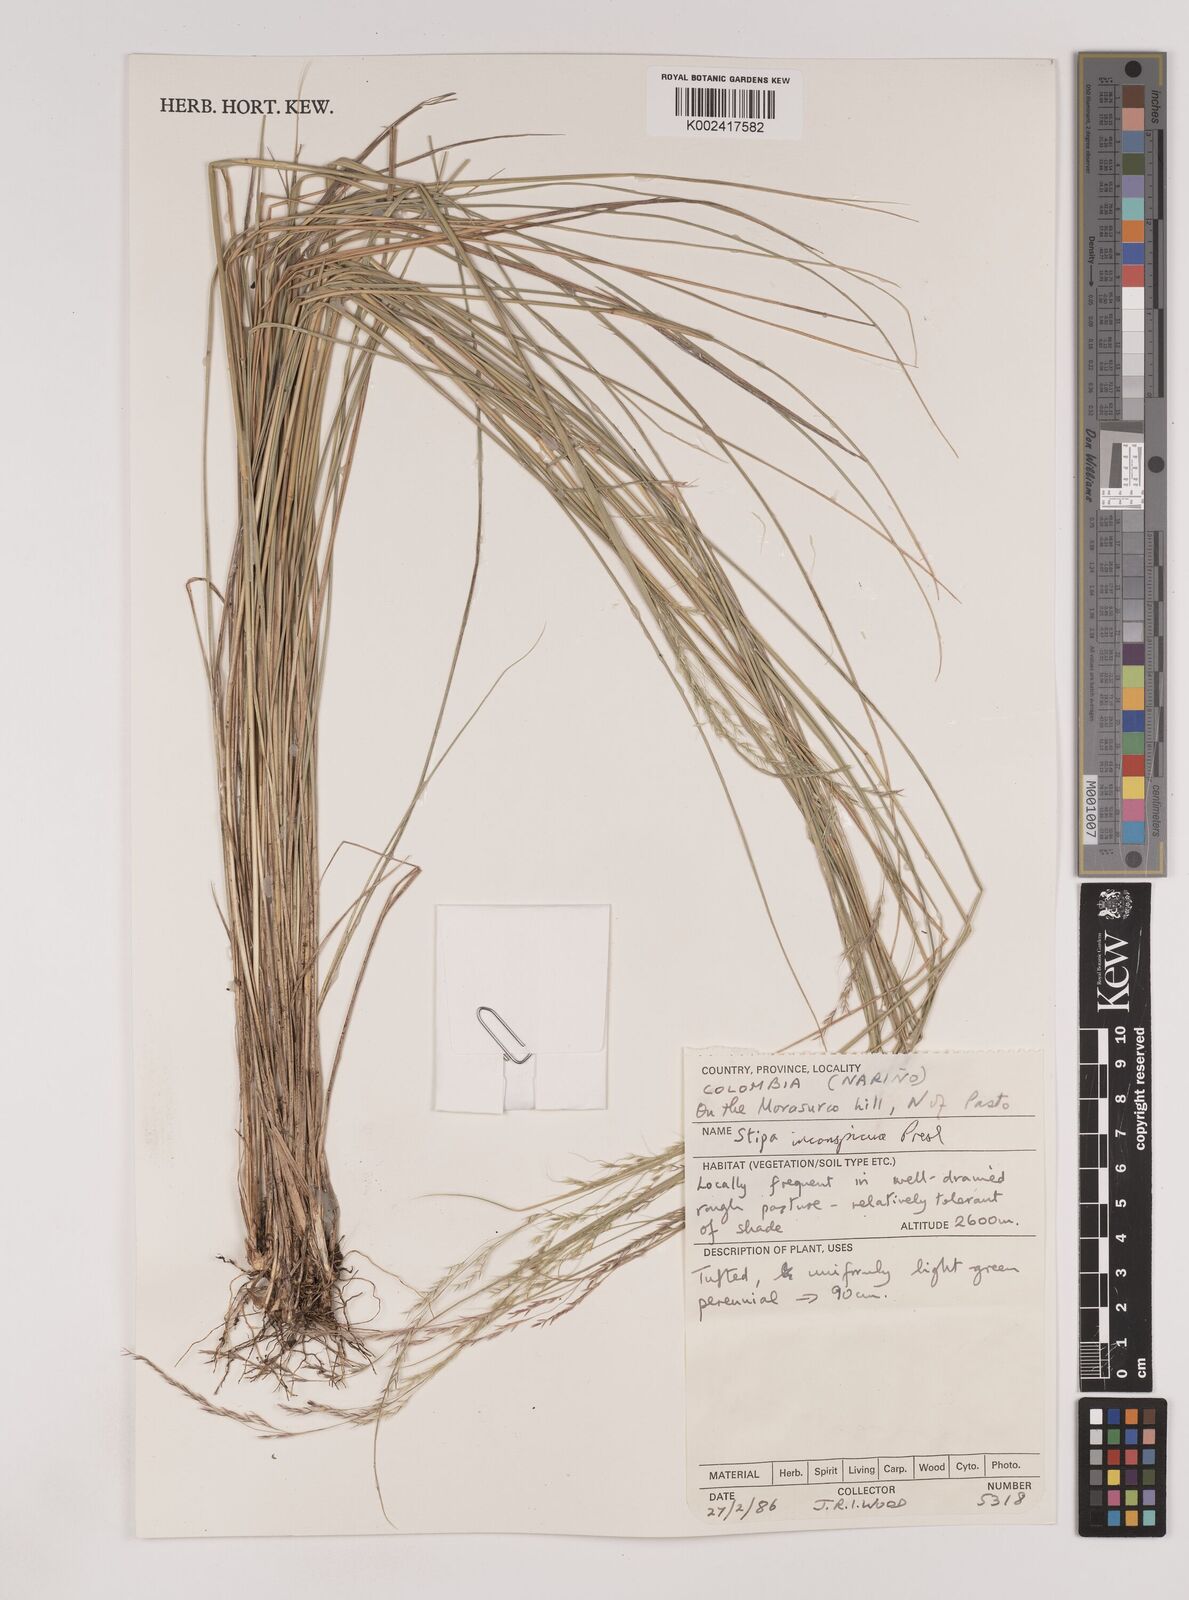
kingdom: Plantae
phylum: Tracheophyta
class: Liliopsida
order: Poales
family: Poaceae
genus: Nassella
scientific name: Nassella
